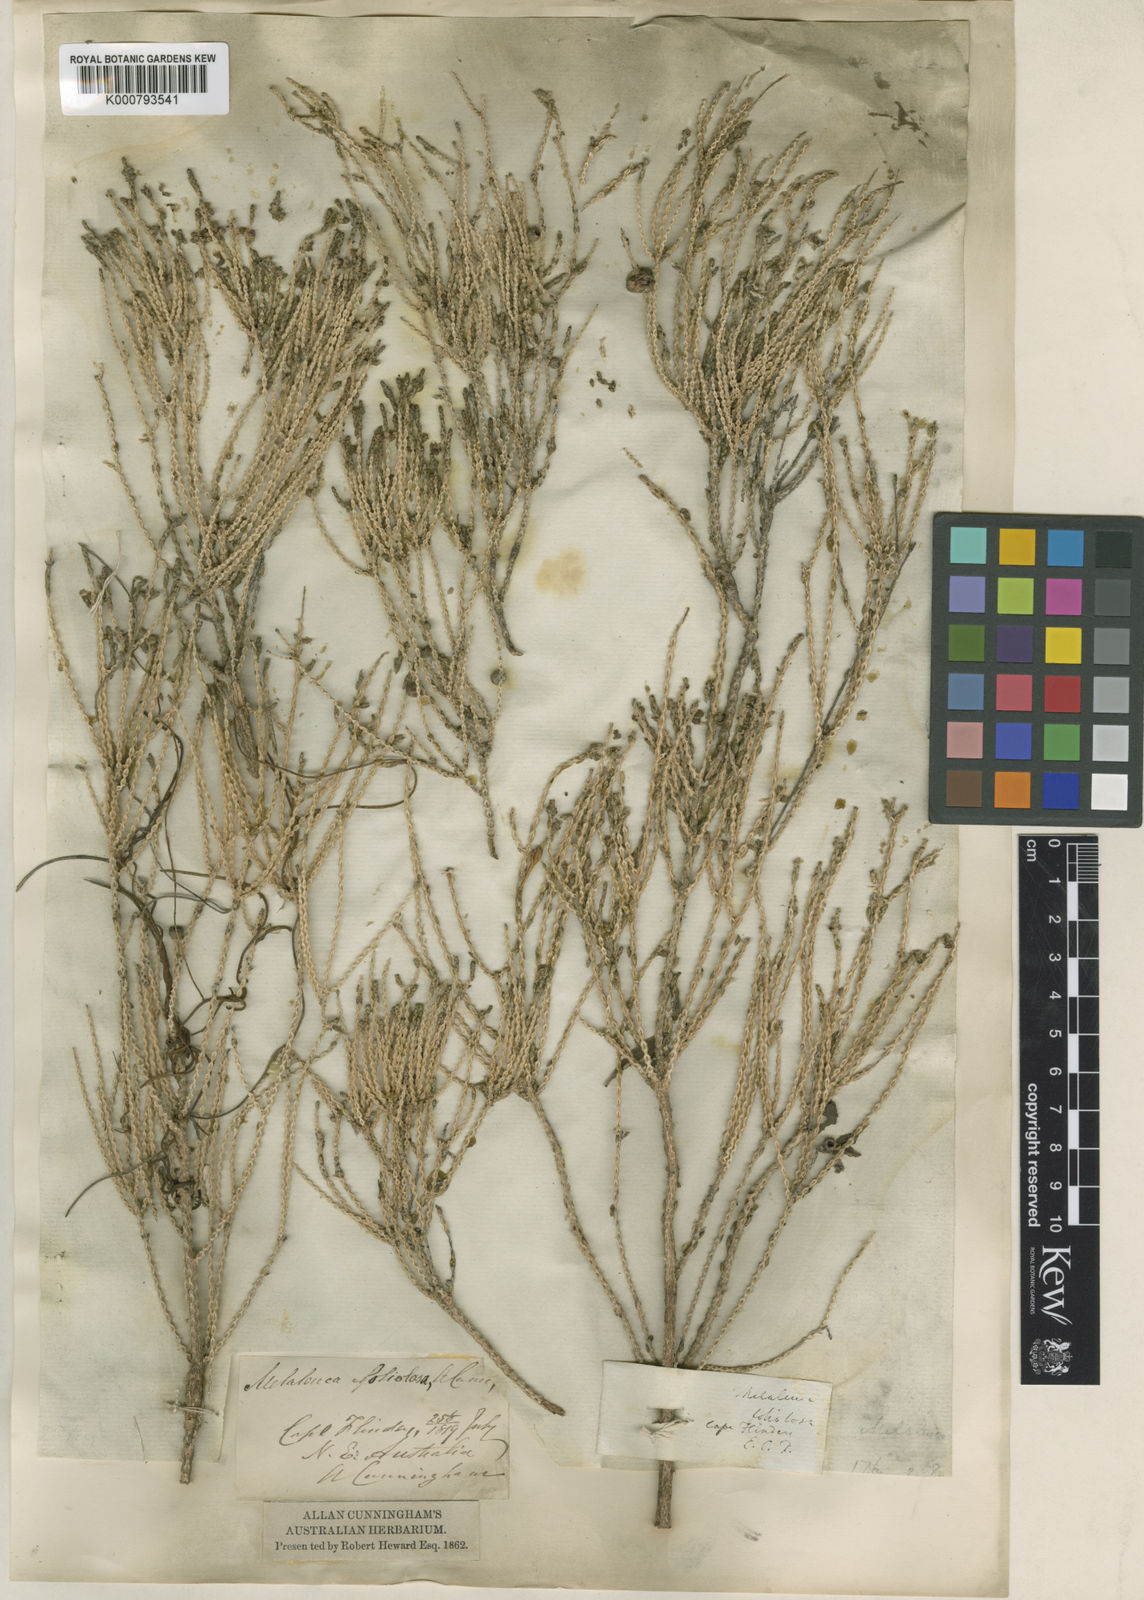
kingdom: Plantae
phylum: Tracheophyta
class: Magnoliopsida
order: Myrtales
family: Myrtaceae
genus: Melaleuca
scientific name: Melaleuca foliolosa
